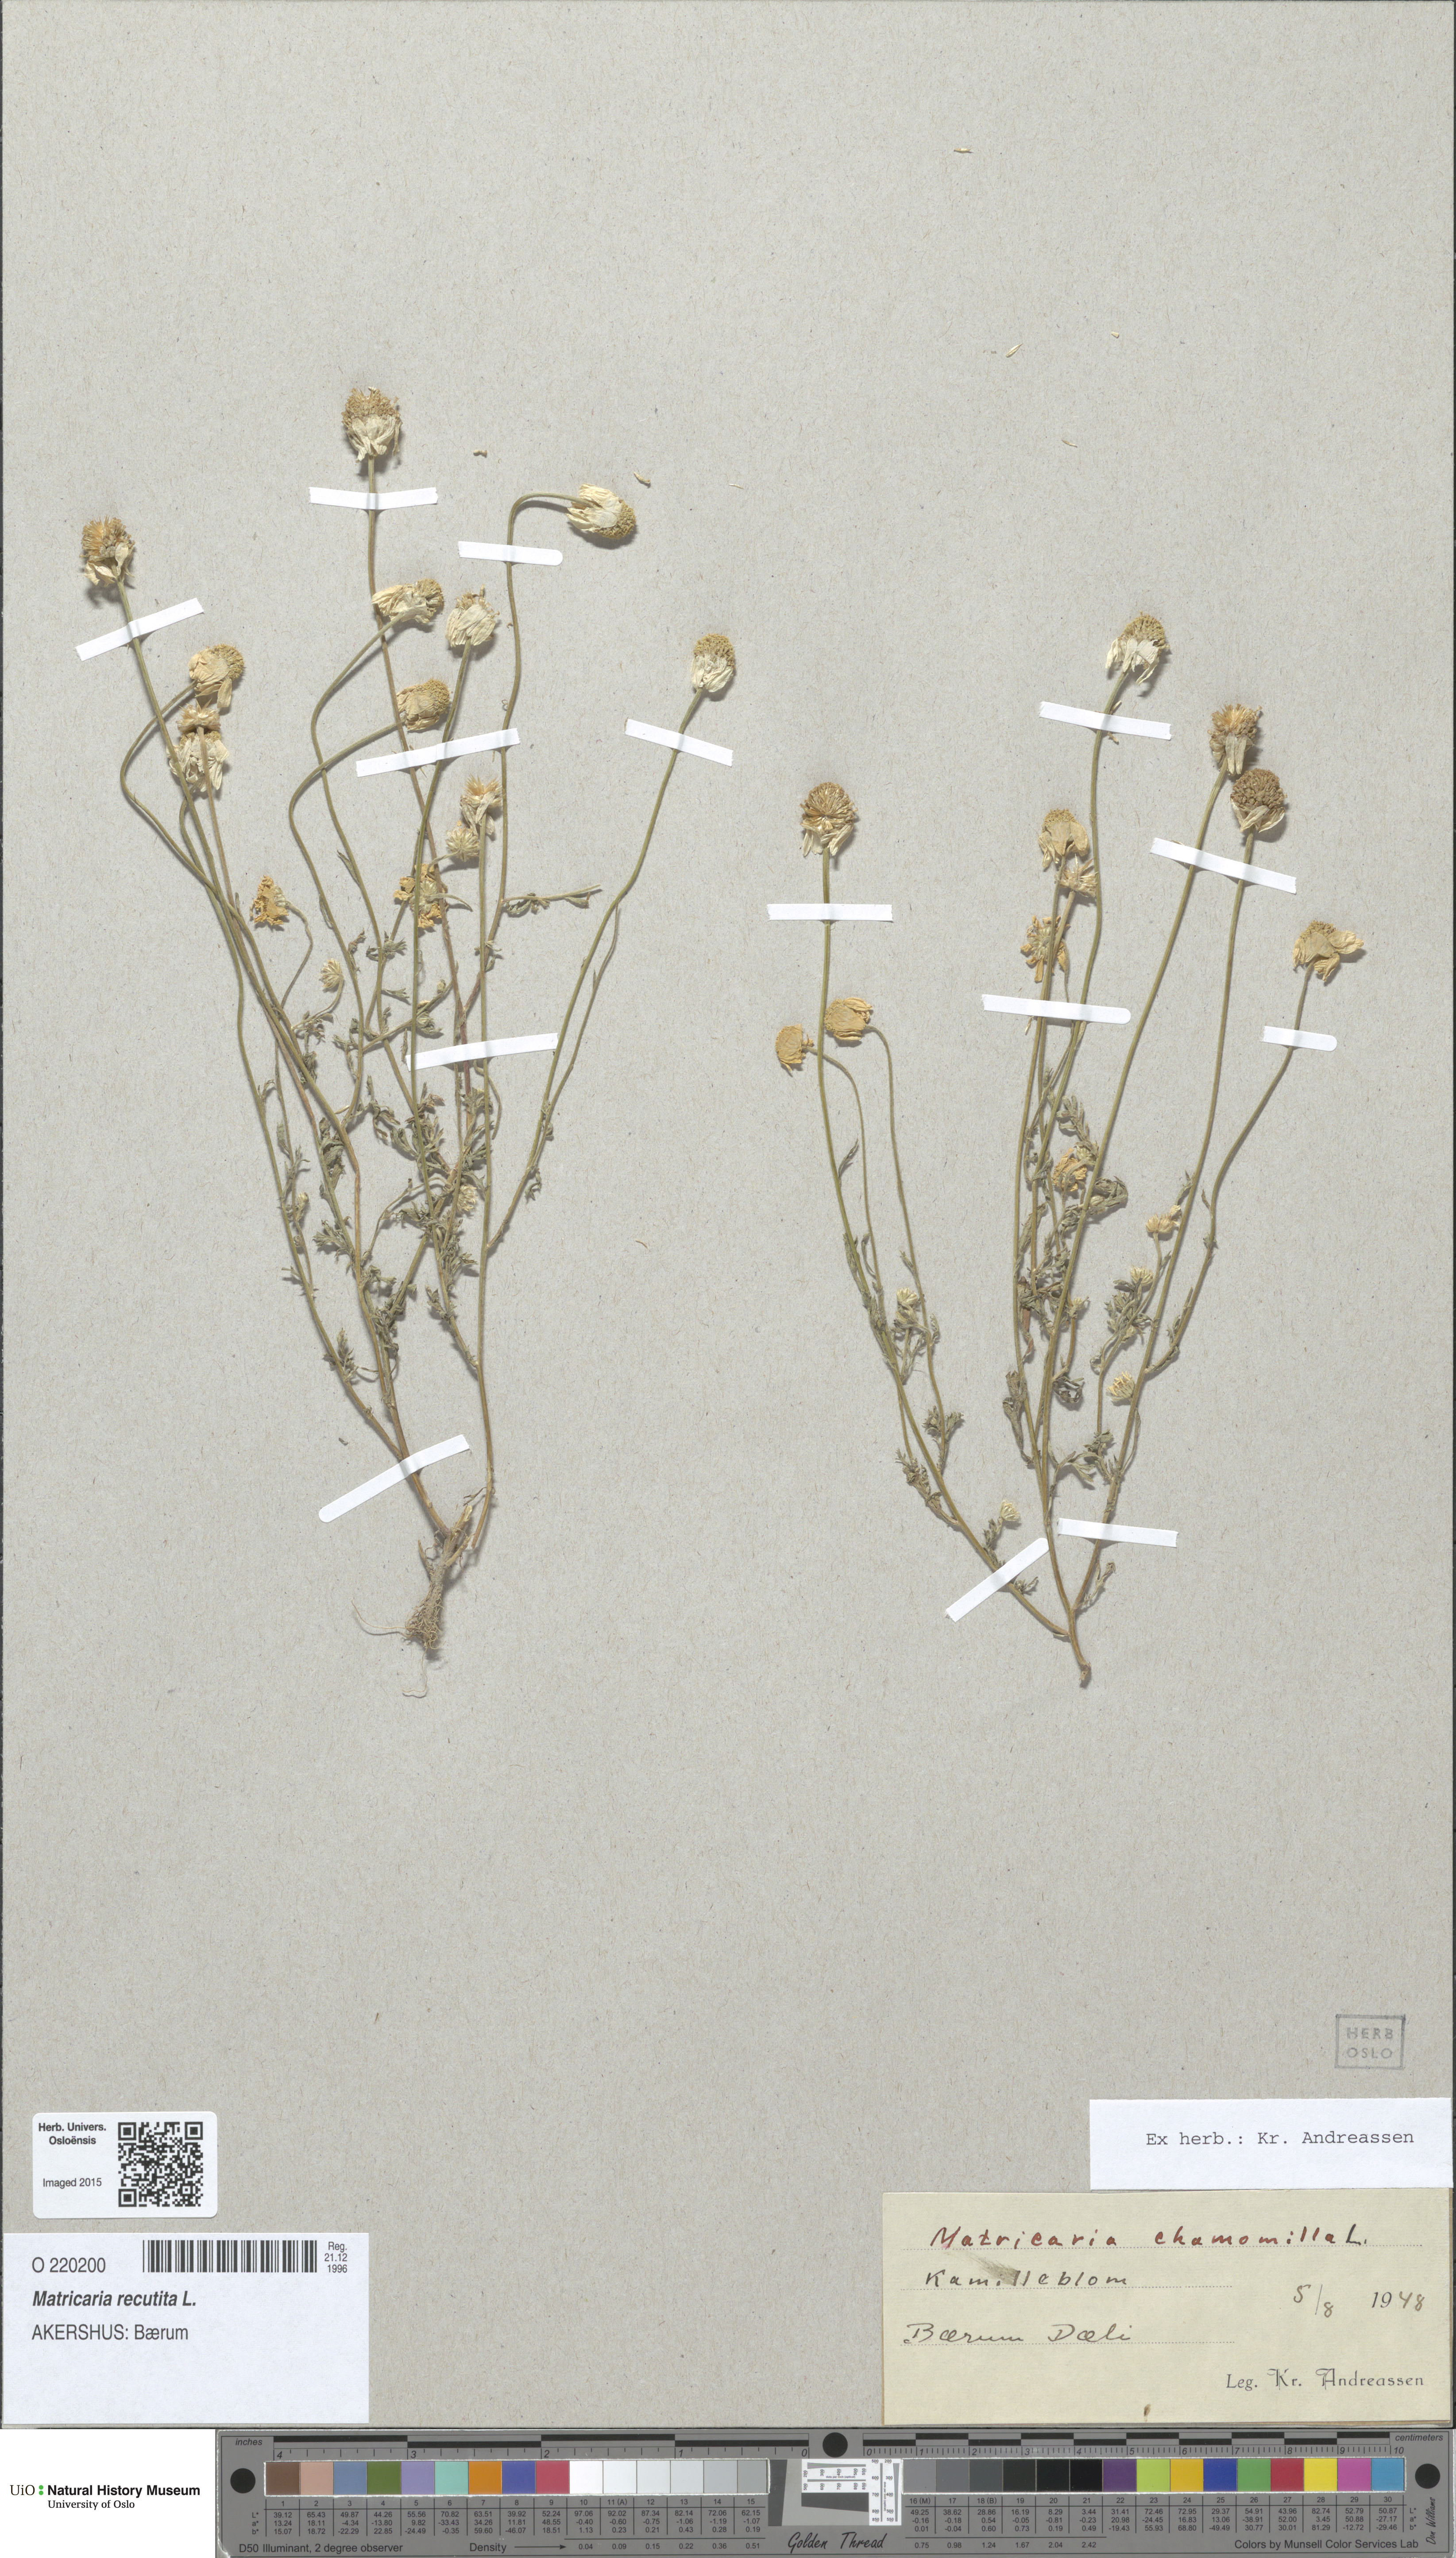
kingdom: Plantae
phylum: Tracheophyta
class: Magnoliopsida
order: Asterales
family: Asteraceae
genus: Matricaria
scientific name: Matricaria chamomilla
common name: Scented mayweed
